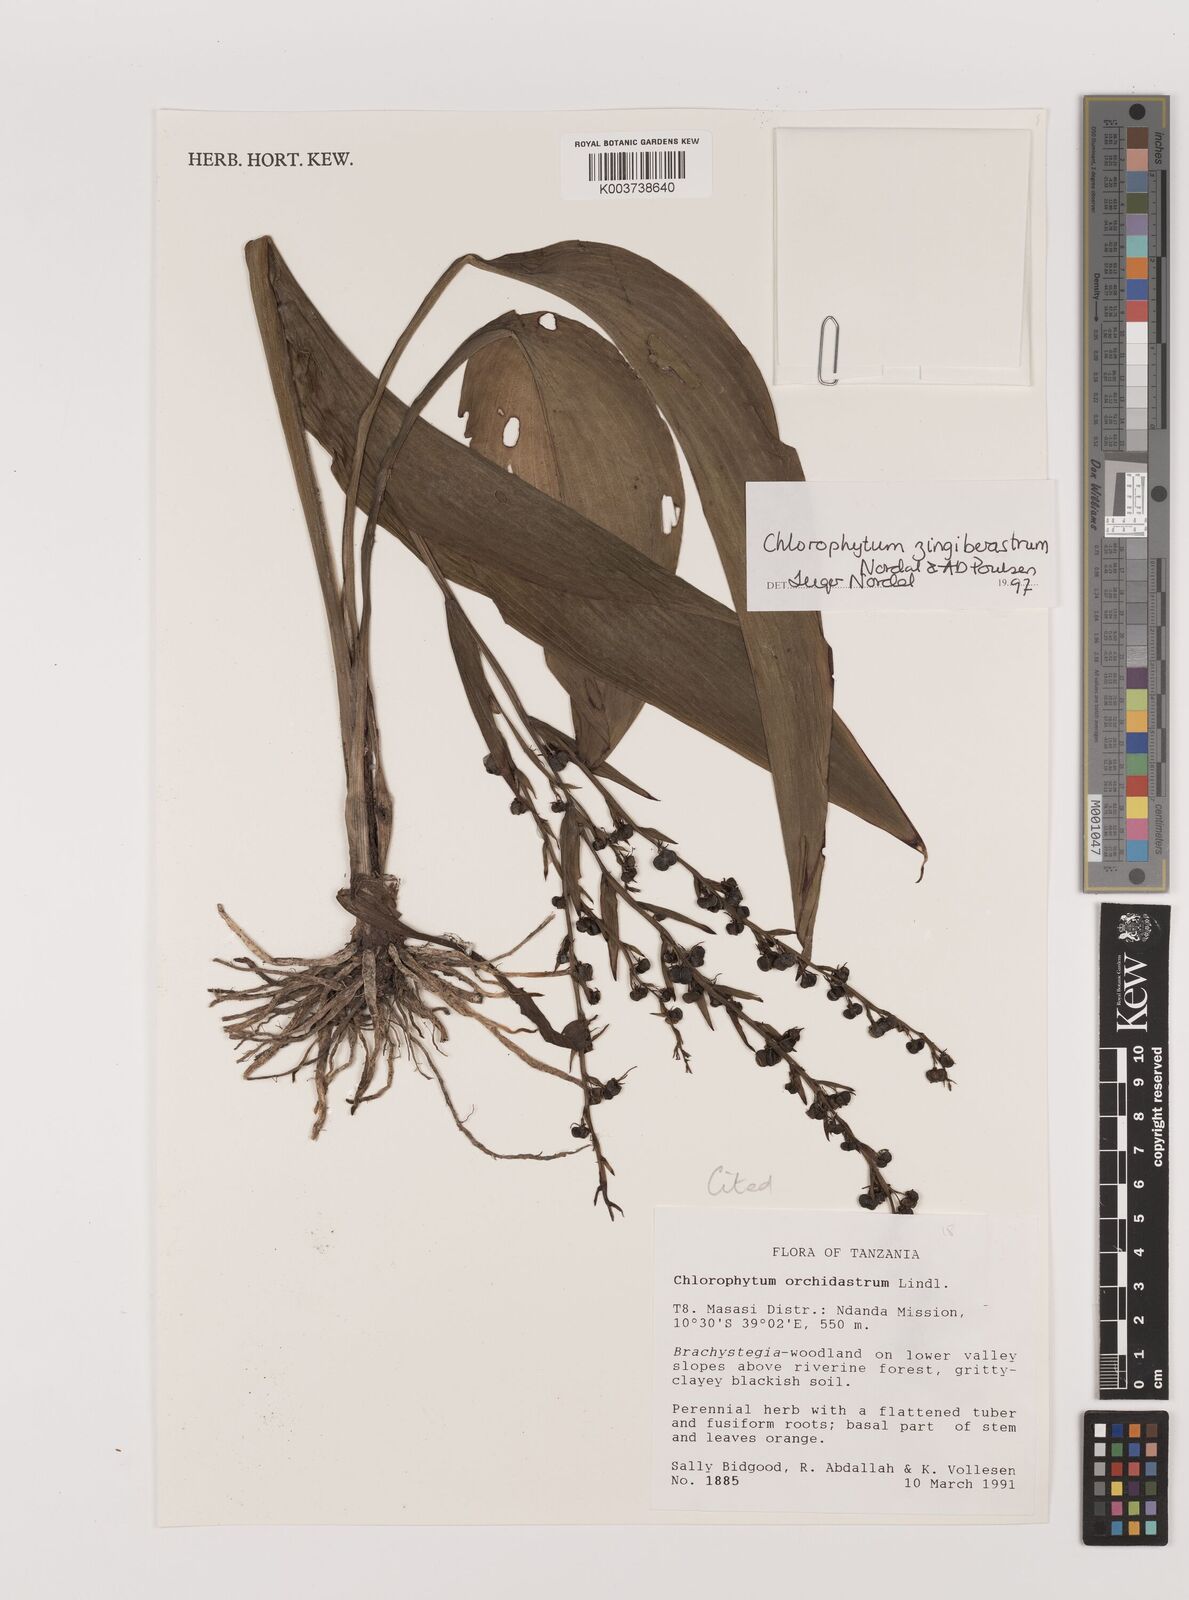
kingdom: Plantae
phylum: Tracheophyta
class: Liliopsida
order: Asparagales
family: Asparagaceae
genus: Chlorophytum
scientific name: Chlorophytum zingiberastrum
